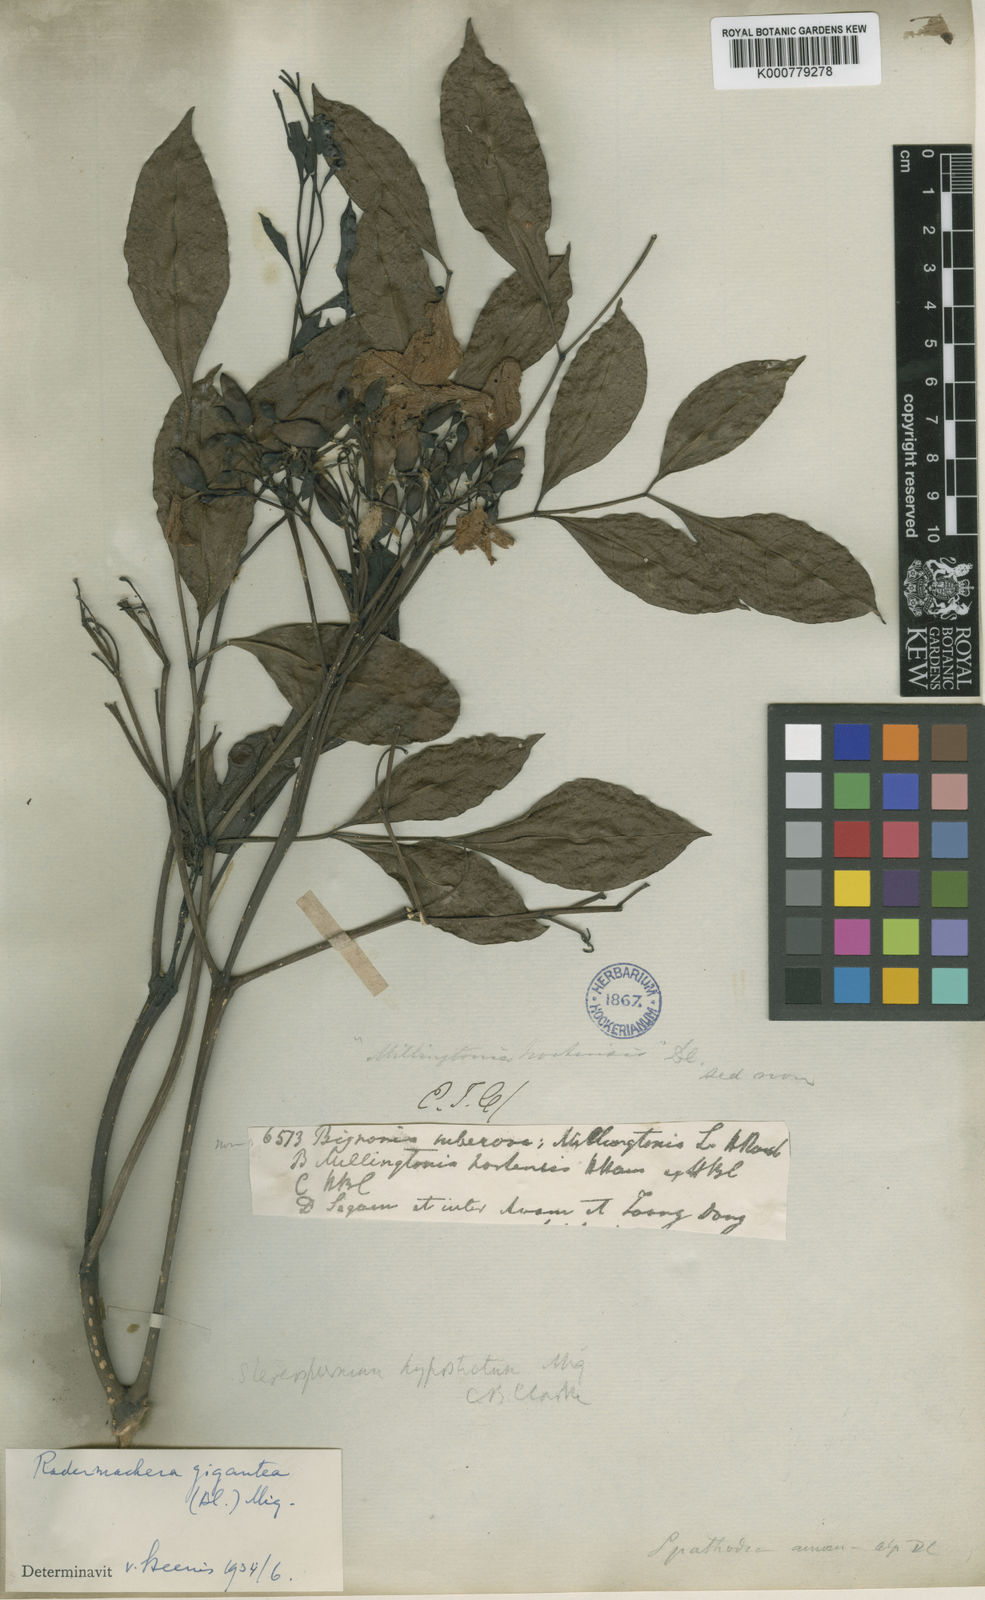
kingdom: Plantae
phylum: Tracheophyta
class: Magnoliopsida
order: Lamiales
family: Bignoniaceae
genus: Radermachera
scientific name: Radermachera
